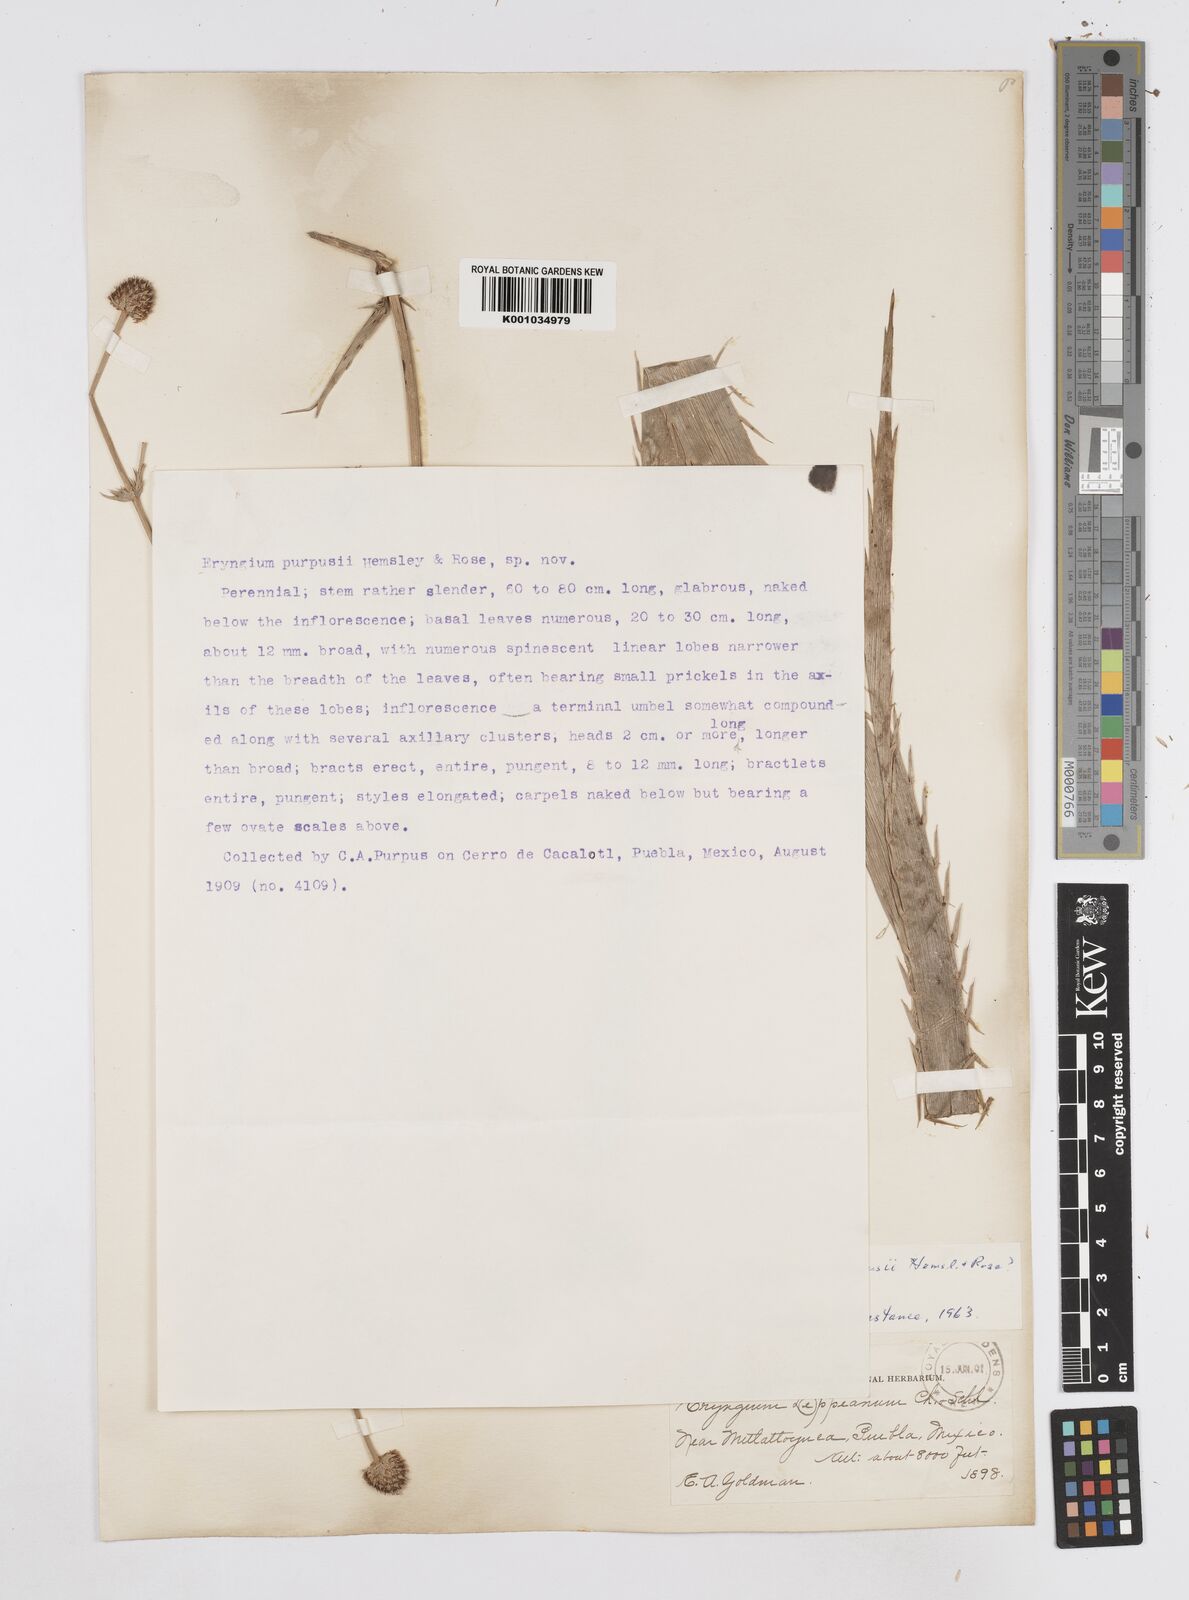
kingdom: Plantae
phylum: Tracheophyta
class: Magnoliopsida
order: Apiales
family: Apiaceae
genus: Eryngium
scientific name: Eryngium purpusii
